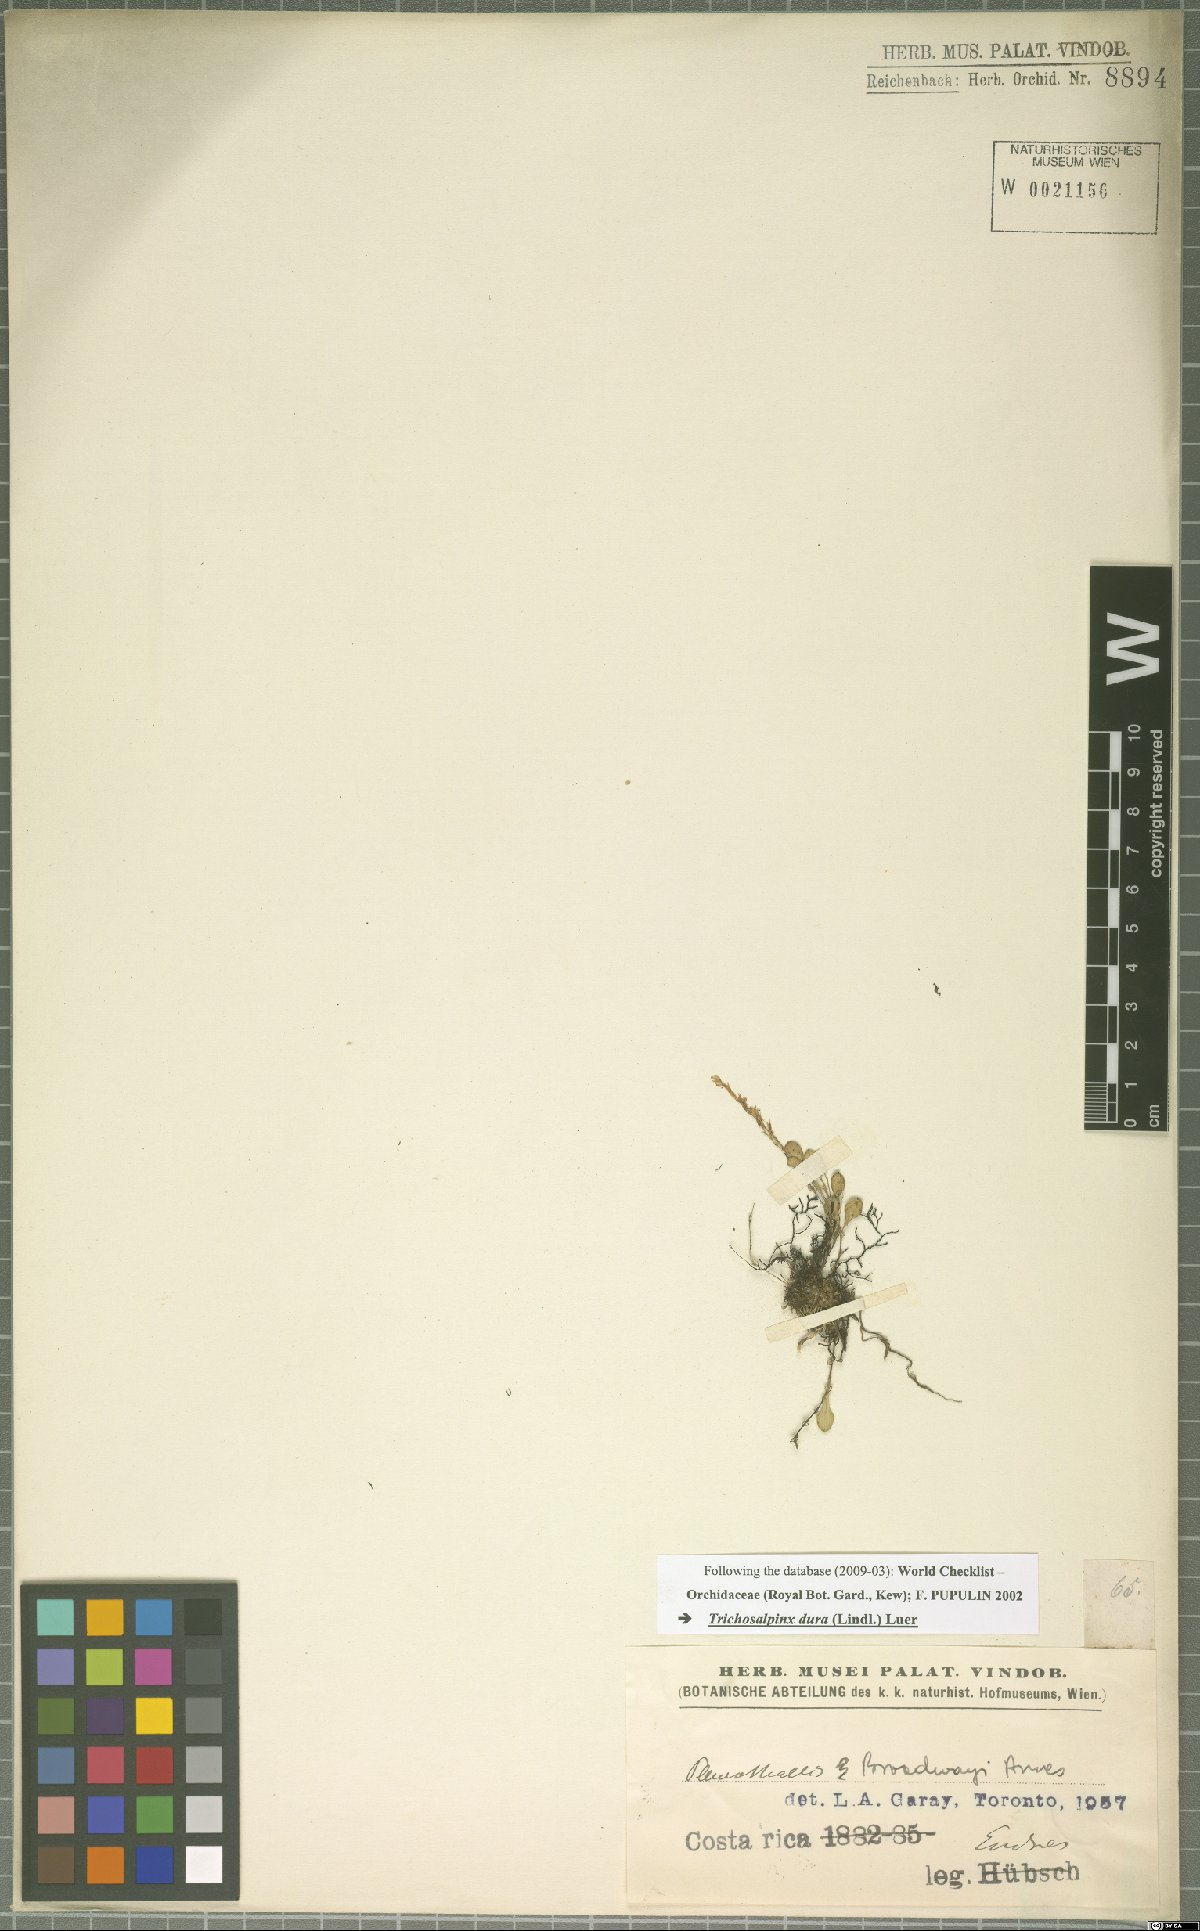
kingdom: Plantae
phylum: Tracheophyta
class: Liliopsida
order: Asparagales
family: Orchidaceae
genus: Trichosalpinx
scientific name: Trichosalpinx dura
